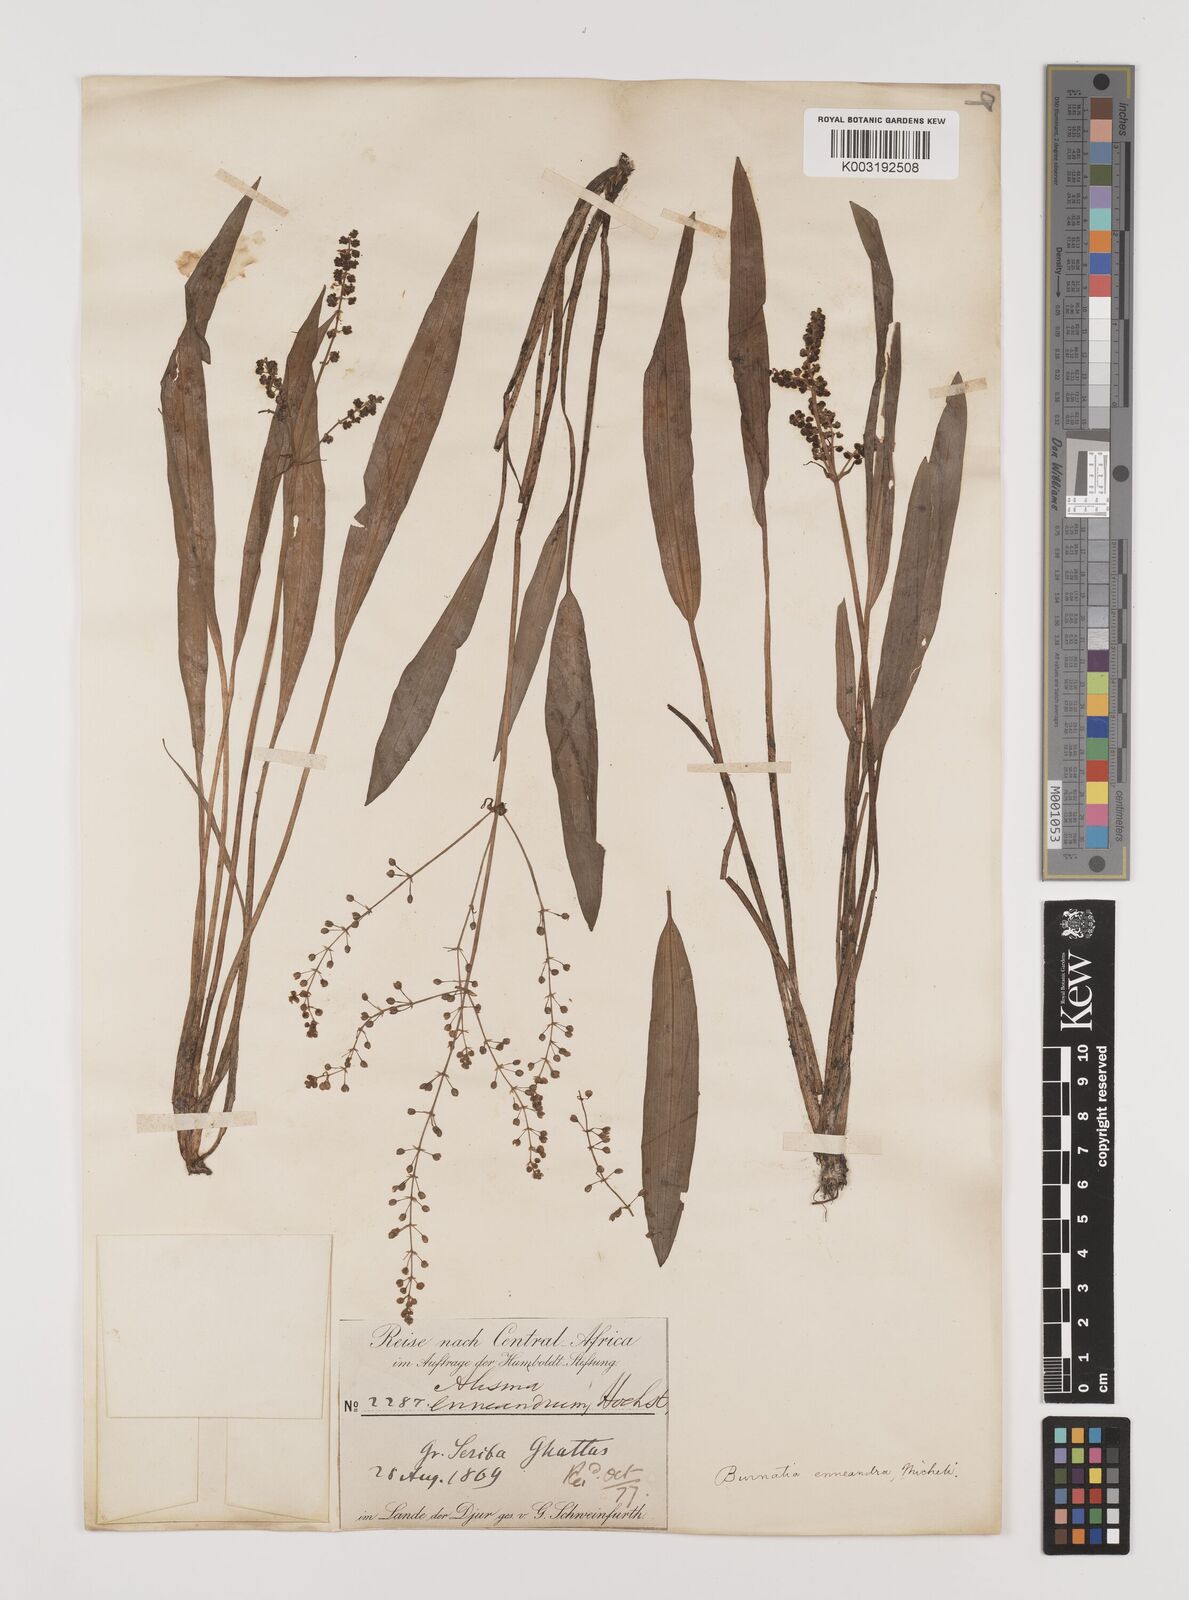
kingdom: Plantae
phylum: Tracheophyta
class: Liliopsida
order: Alismatales
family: Alismataceae
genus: Burnatia
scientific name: Burnatia enneandra
